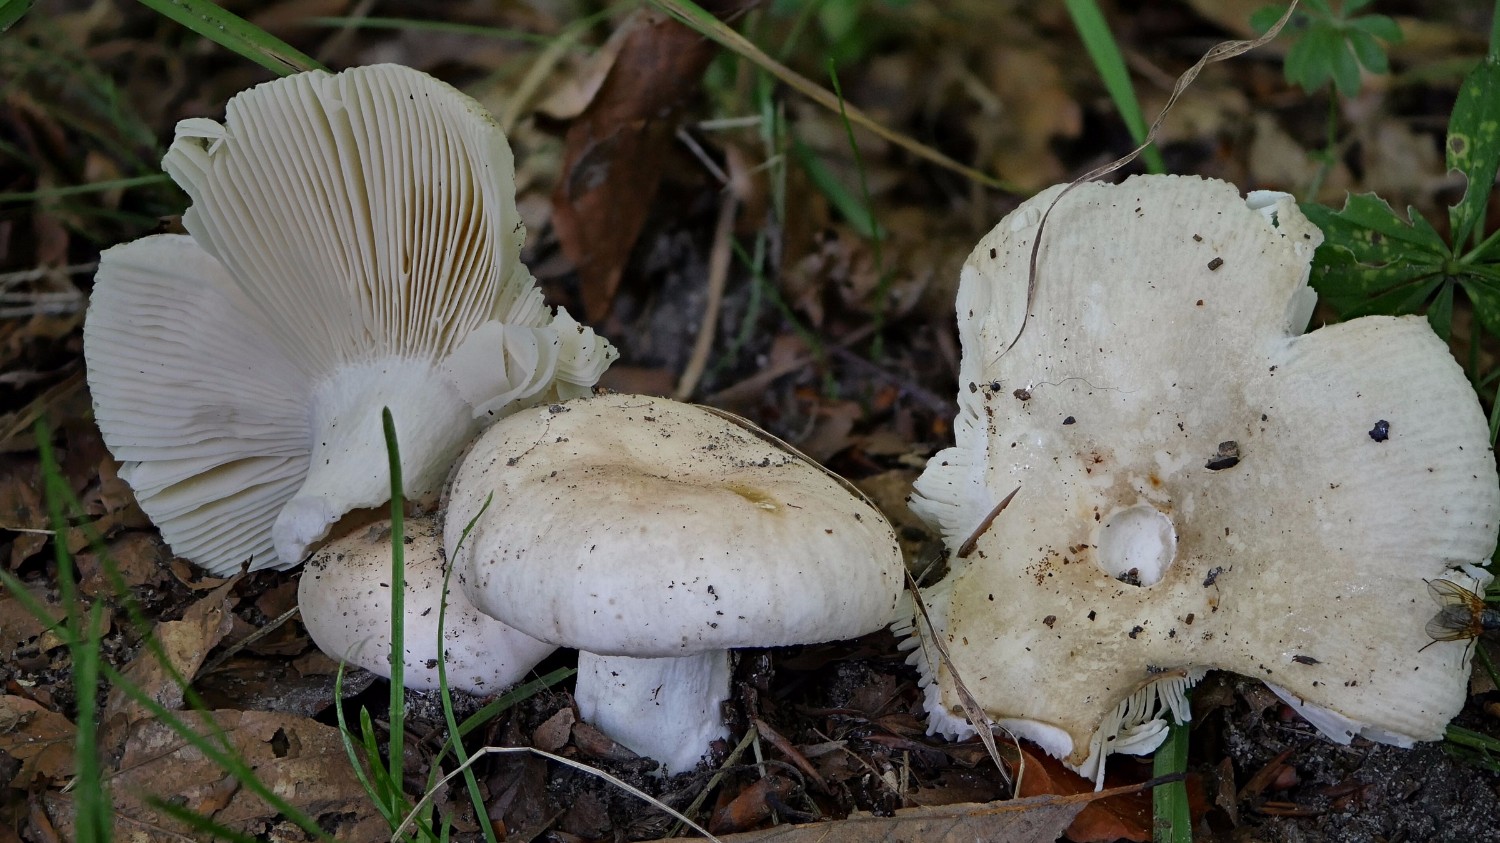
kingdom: Fungi
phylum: Basidiomycota
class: Agaricomycetes
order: Russulales
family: Russulaceae
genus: Russula
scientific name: Russula faustiana
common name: olivengrå skørhat
